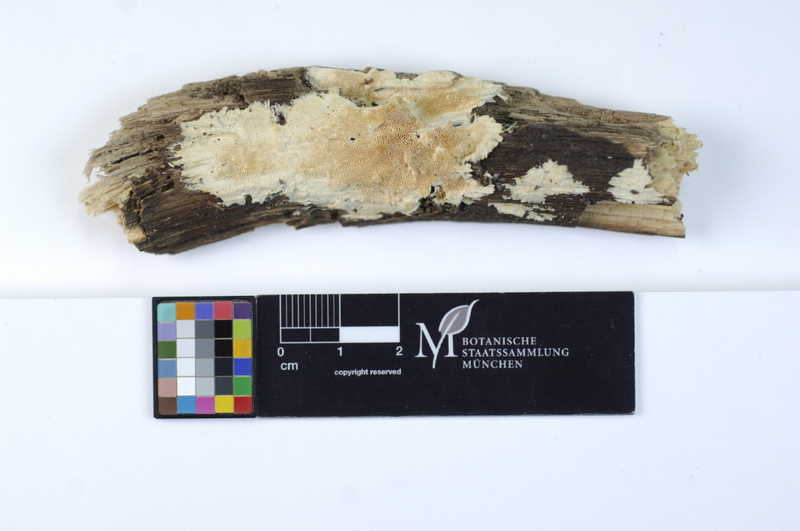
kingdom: Plantae
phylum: Tracheophyta
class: Magnoliopsida
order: Fagales
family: Fagaceae
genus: Quercus
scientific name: Quercus
